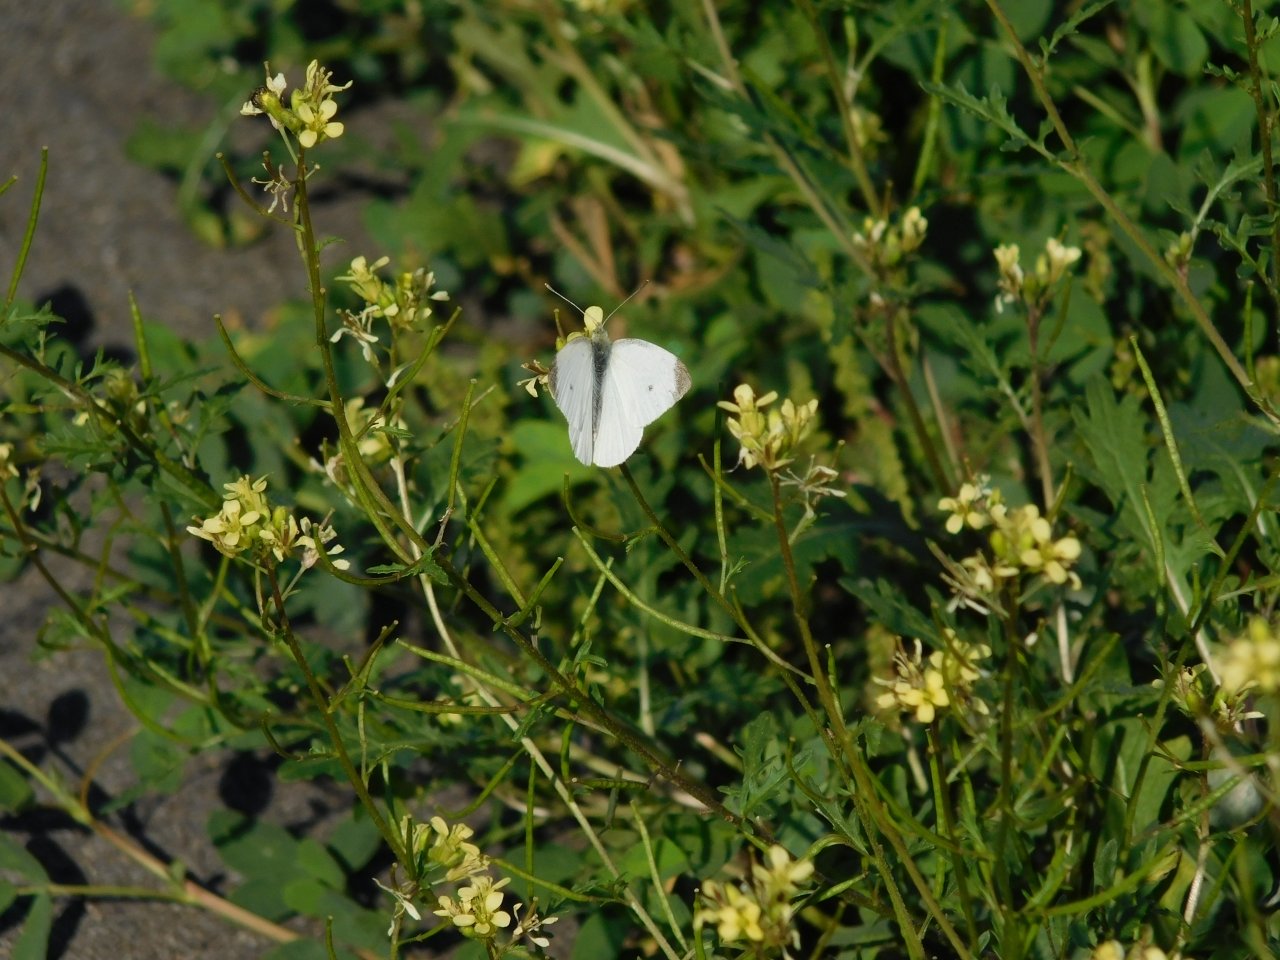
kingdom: Animalia
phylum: Arthropoda
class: Insecta
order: Lepidoptera
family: Pieridae
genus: Pieris
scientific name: Pieris rapae
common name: Cabbage White
